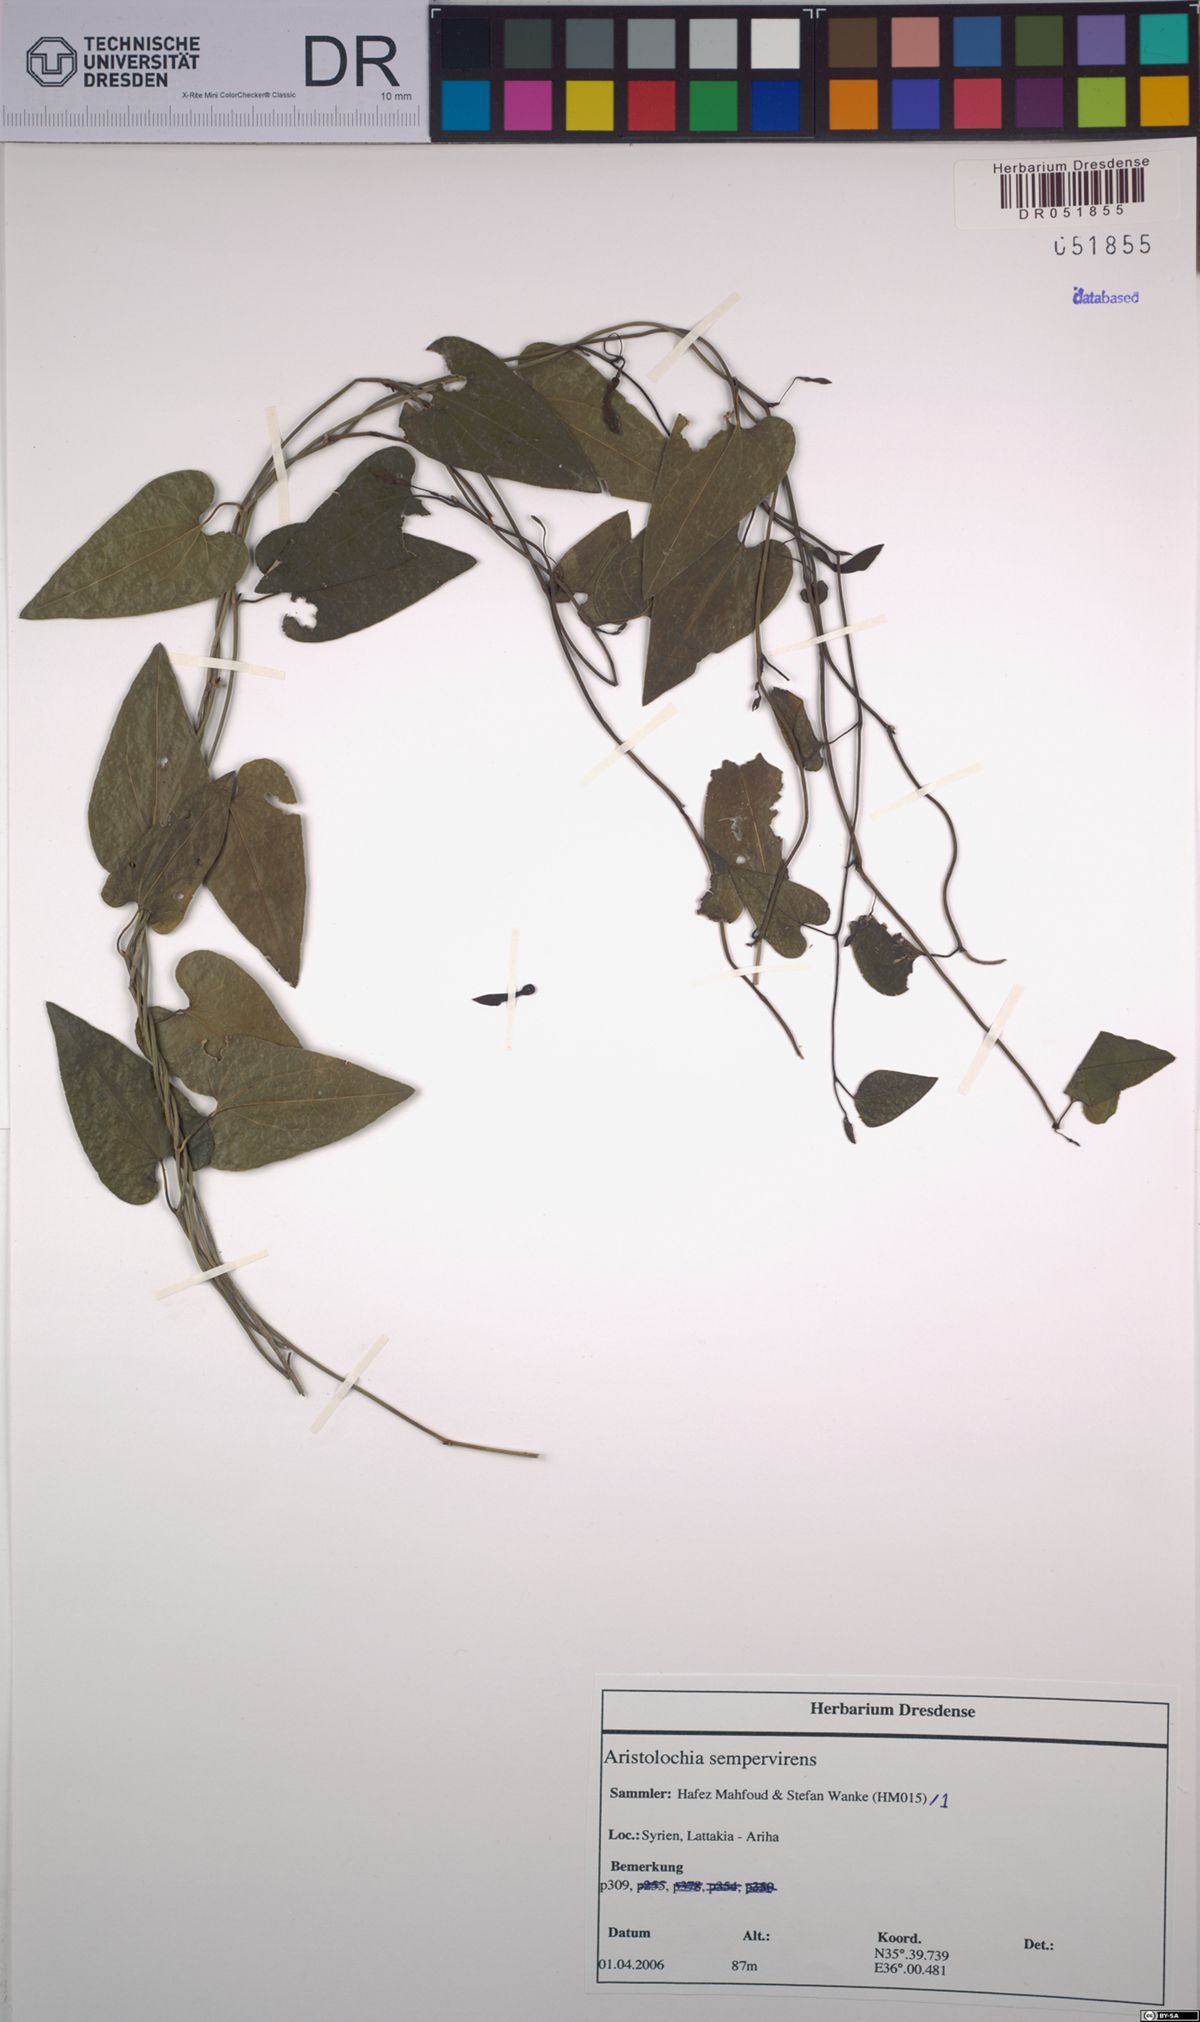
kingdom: Plantae
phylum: Tracheophyta
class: Magnoliopsida
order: Piperales
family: Aristolochiaceae
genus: Aristolochia
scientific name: Aristolochia sempervirens
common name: Long birthwort
